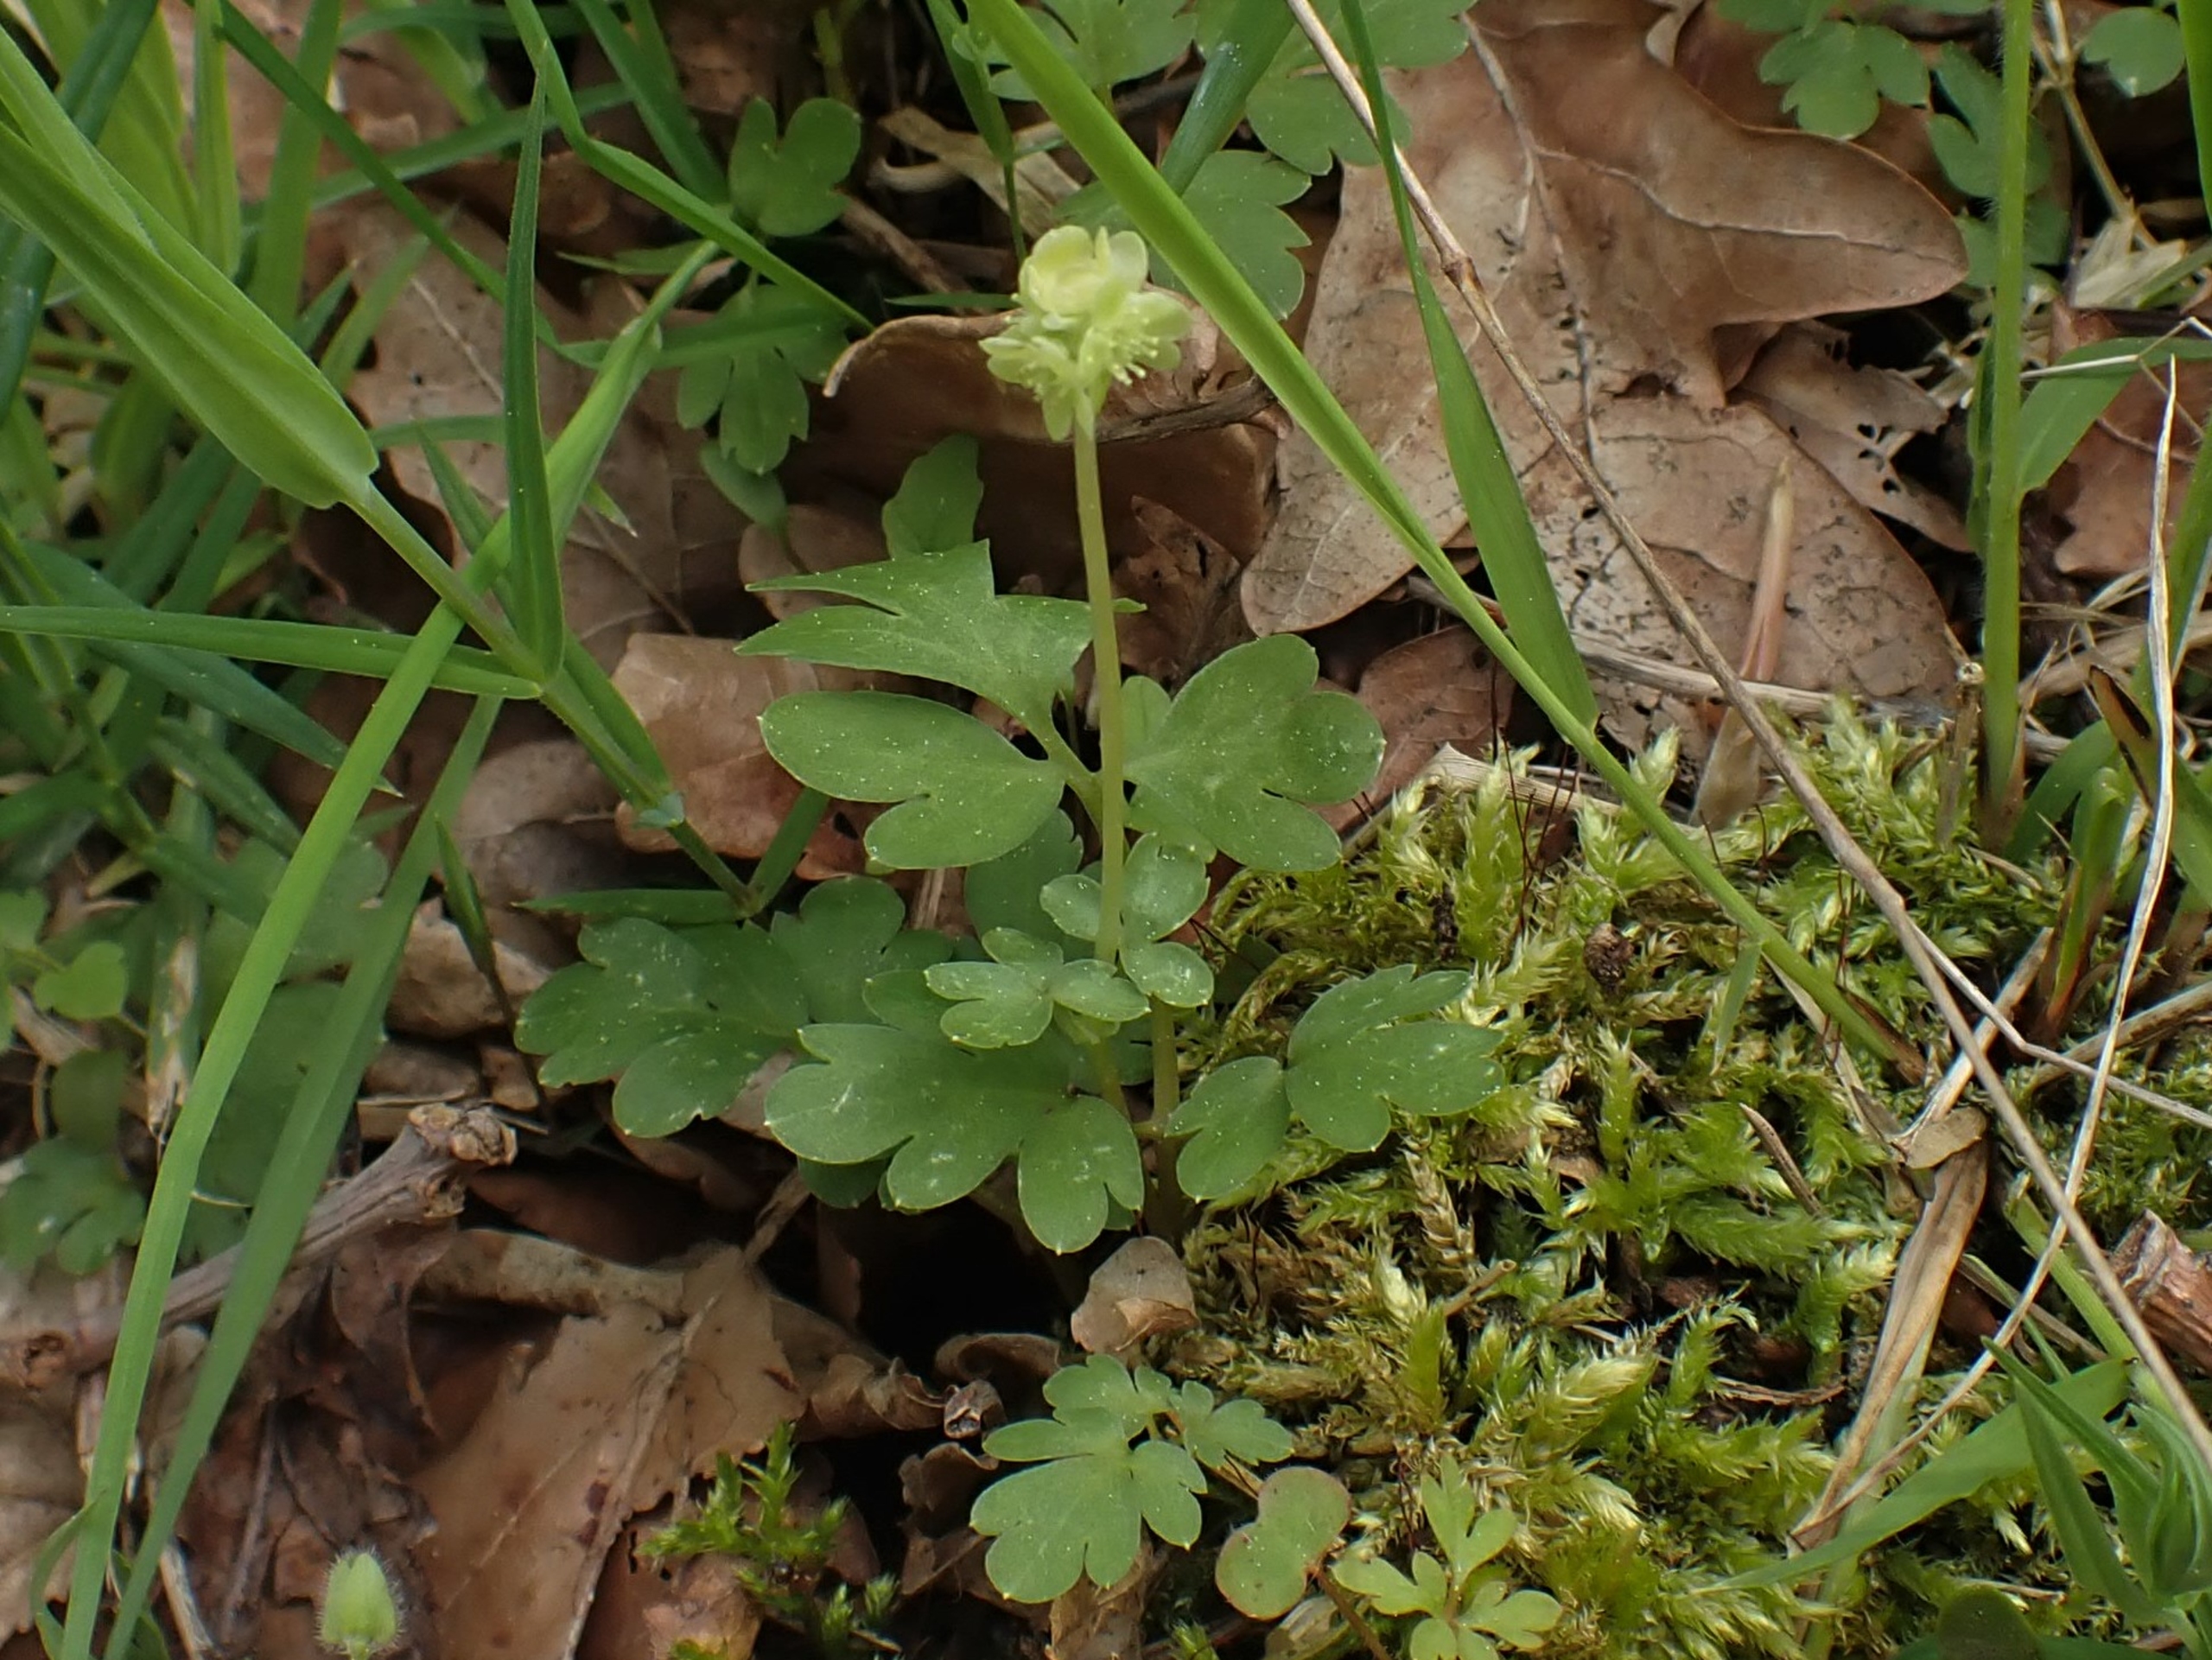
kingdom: Plantae
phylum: Tracheophyta
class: Magnoliopsida
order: Dipsacales
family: Viburnaceae
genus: Adoxa
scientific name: Adoxa moschatellina
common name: Desmerurt
